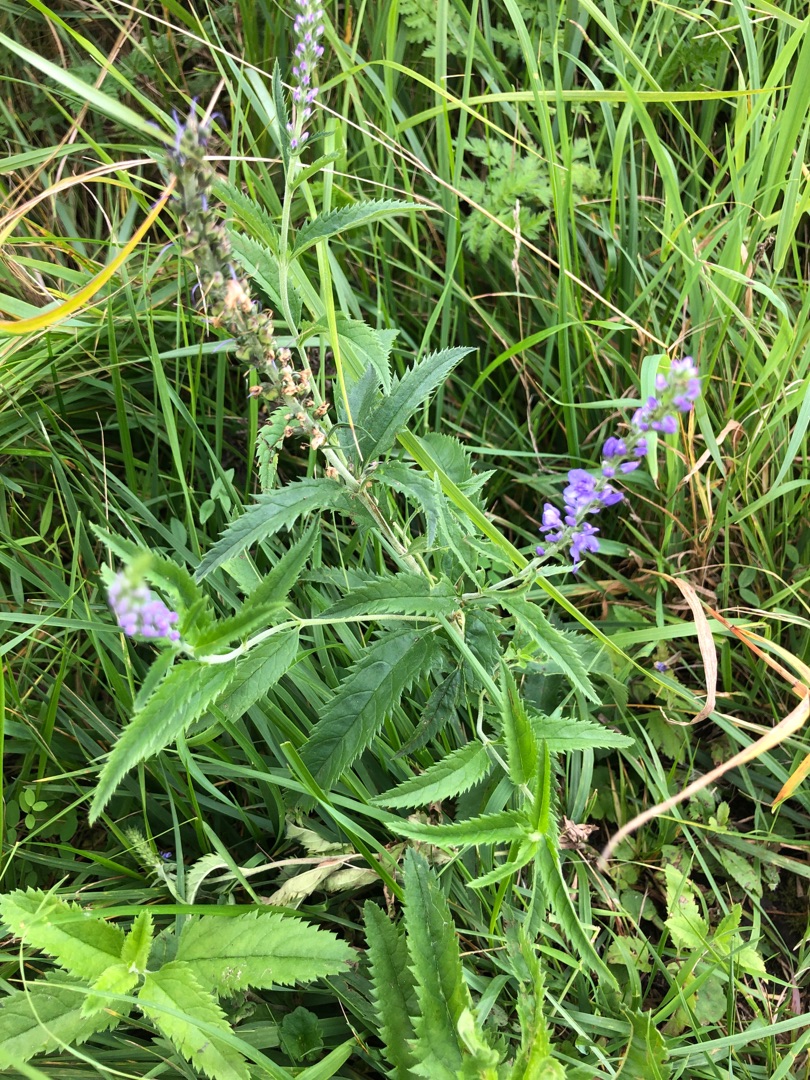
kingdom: Plantae
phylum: Tracheophyta
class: Magnoliopsida
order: Lamiales
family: Plantaginaceae
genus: Veronica
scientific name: Veronica longifolia
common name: Langbladet ærenpris
